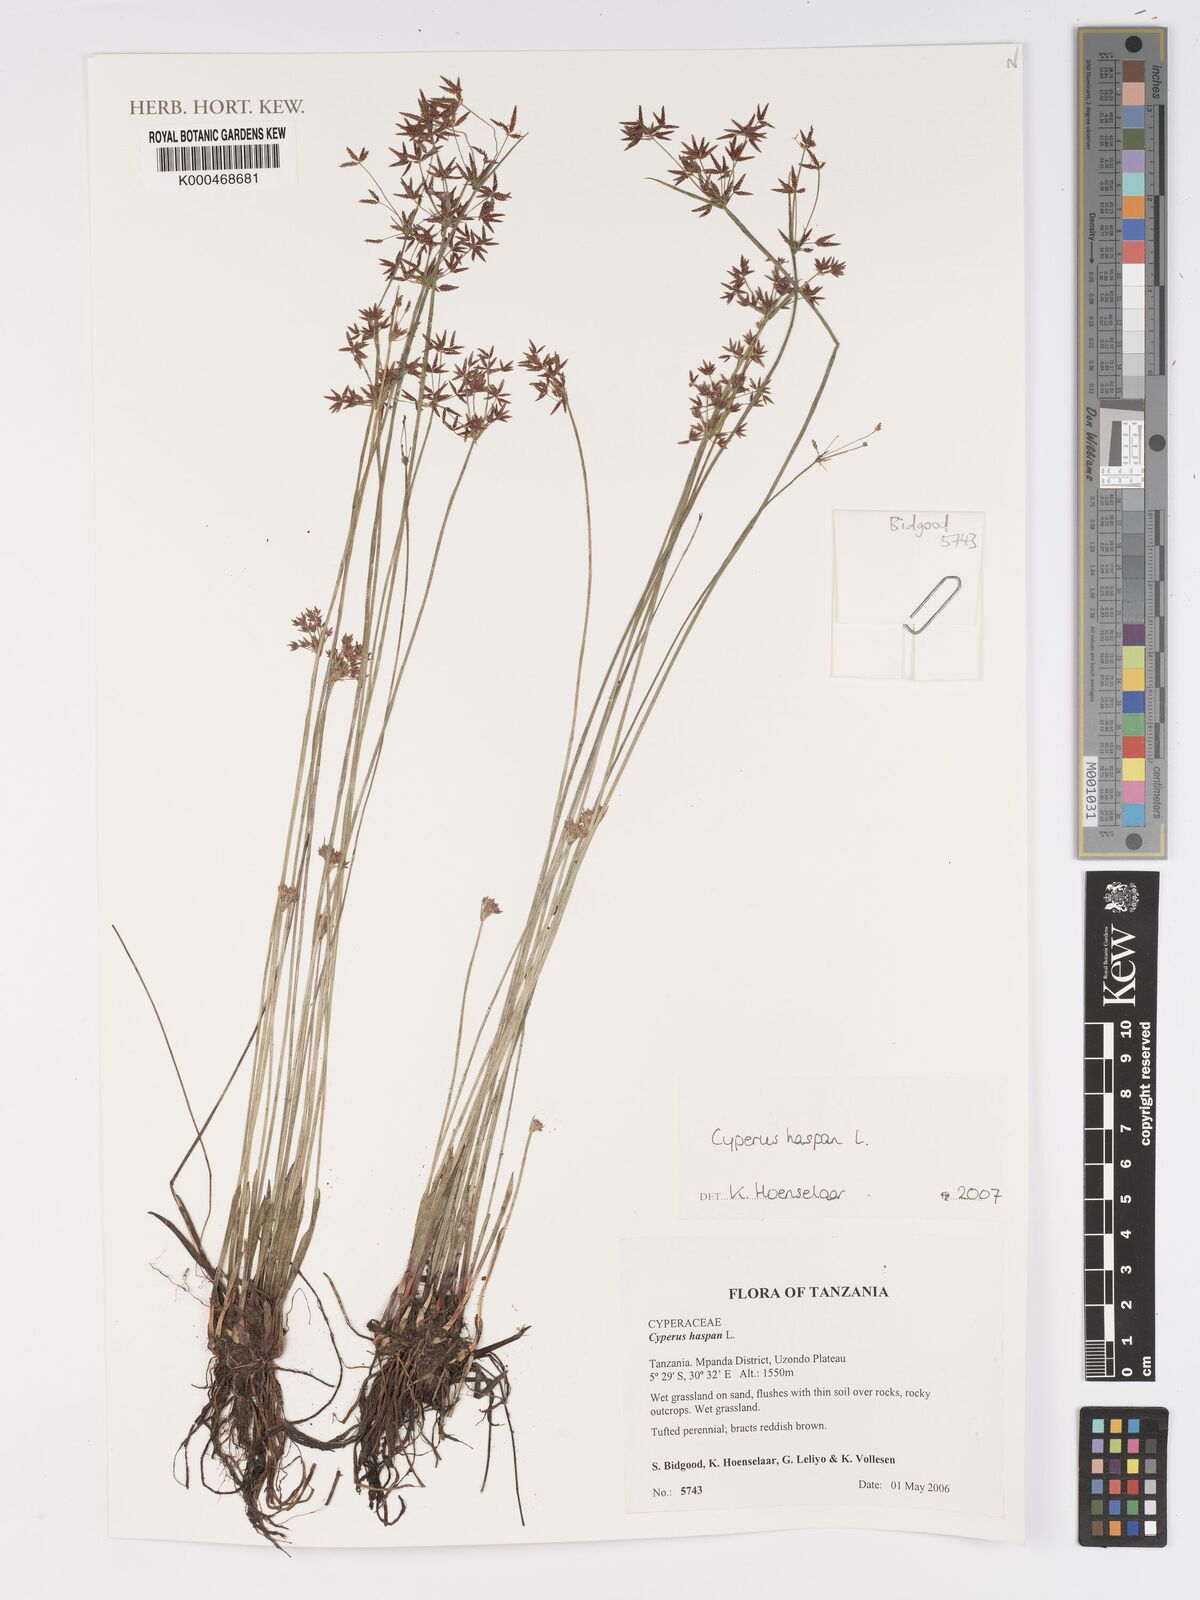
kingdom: Plantae
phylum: Tracheophyta
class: Liliopsida
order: Poales
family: Cyperaceae
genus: Cyperus
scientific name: Cyperus haspan
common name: Haspan flatsedge
